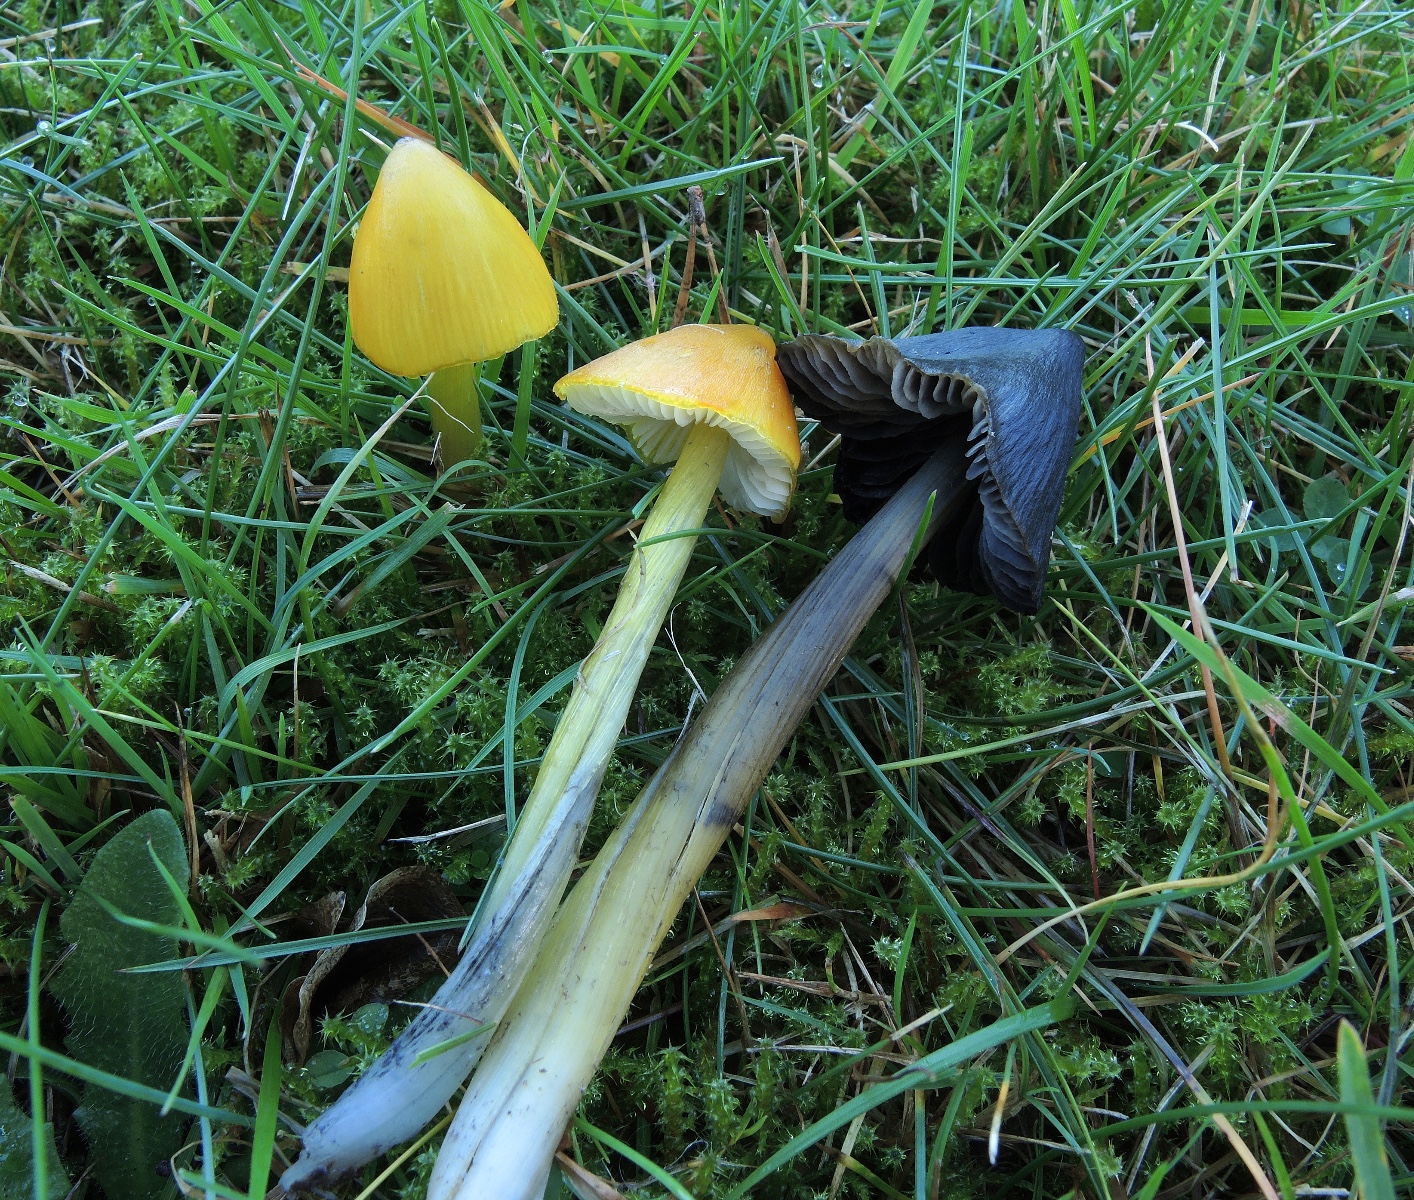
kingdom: Fungi
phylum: Basidiomycota
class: Agaricomycetes
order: Agaricales
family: Hygrophoraceae
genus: Hygrocybe
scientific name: Hygrocybe conica
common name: kegle-vokshat
